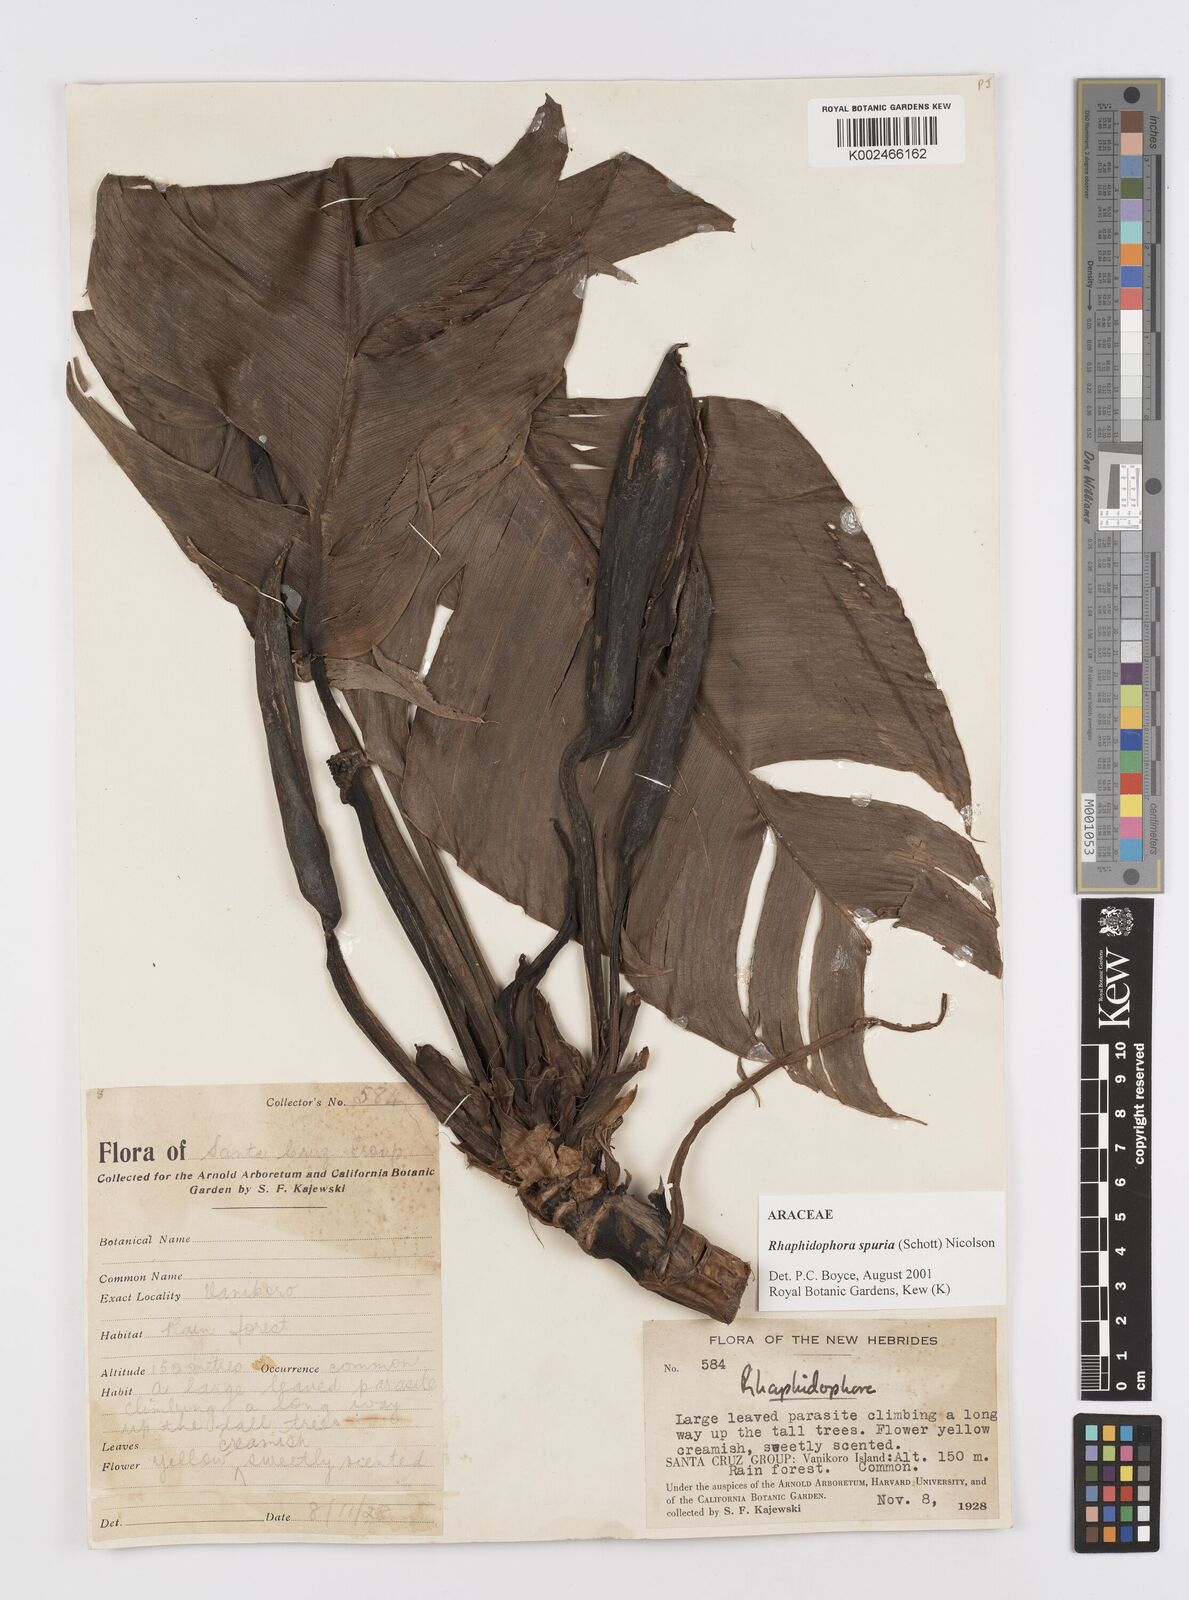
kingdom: Plantae
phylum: Tracheophyta
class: Liliopsida
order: Alismatales
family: Araceae
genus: Rhaphidophora
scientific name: Rhaphidophora spuria
